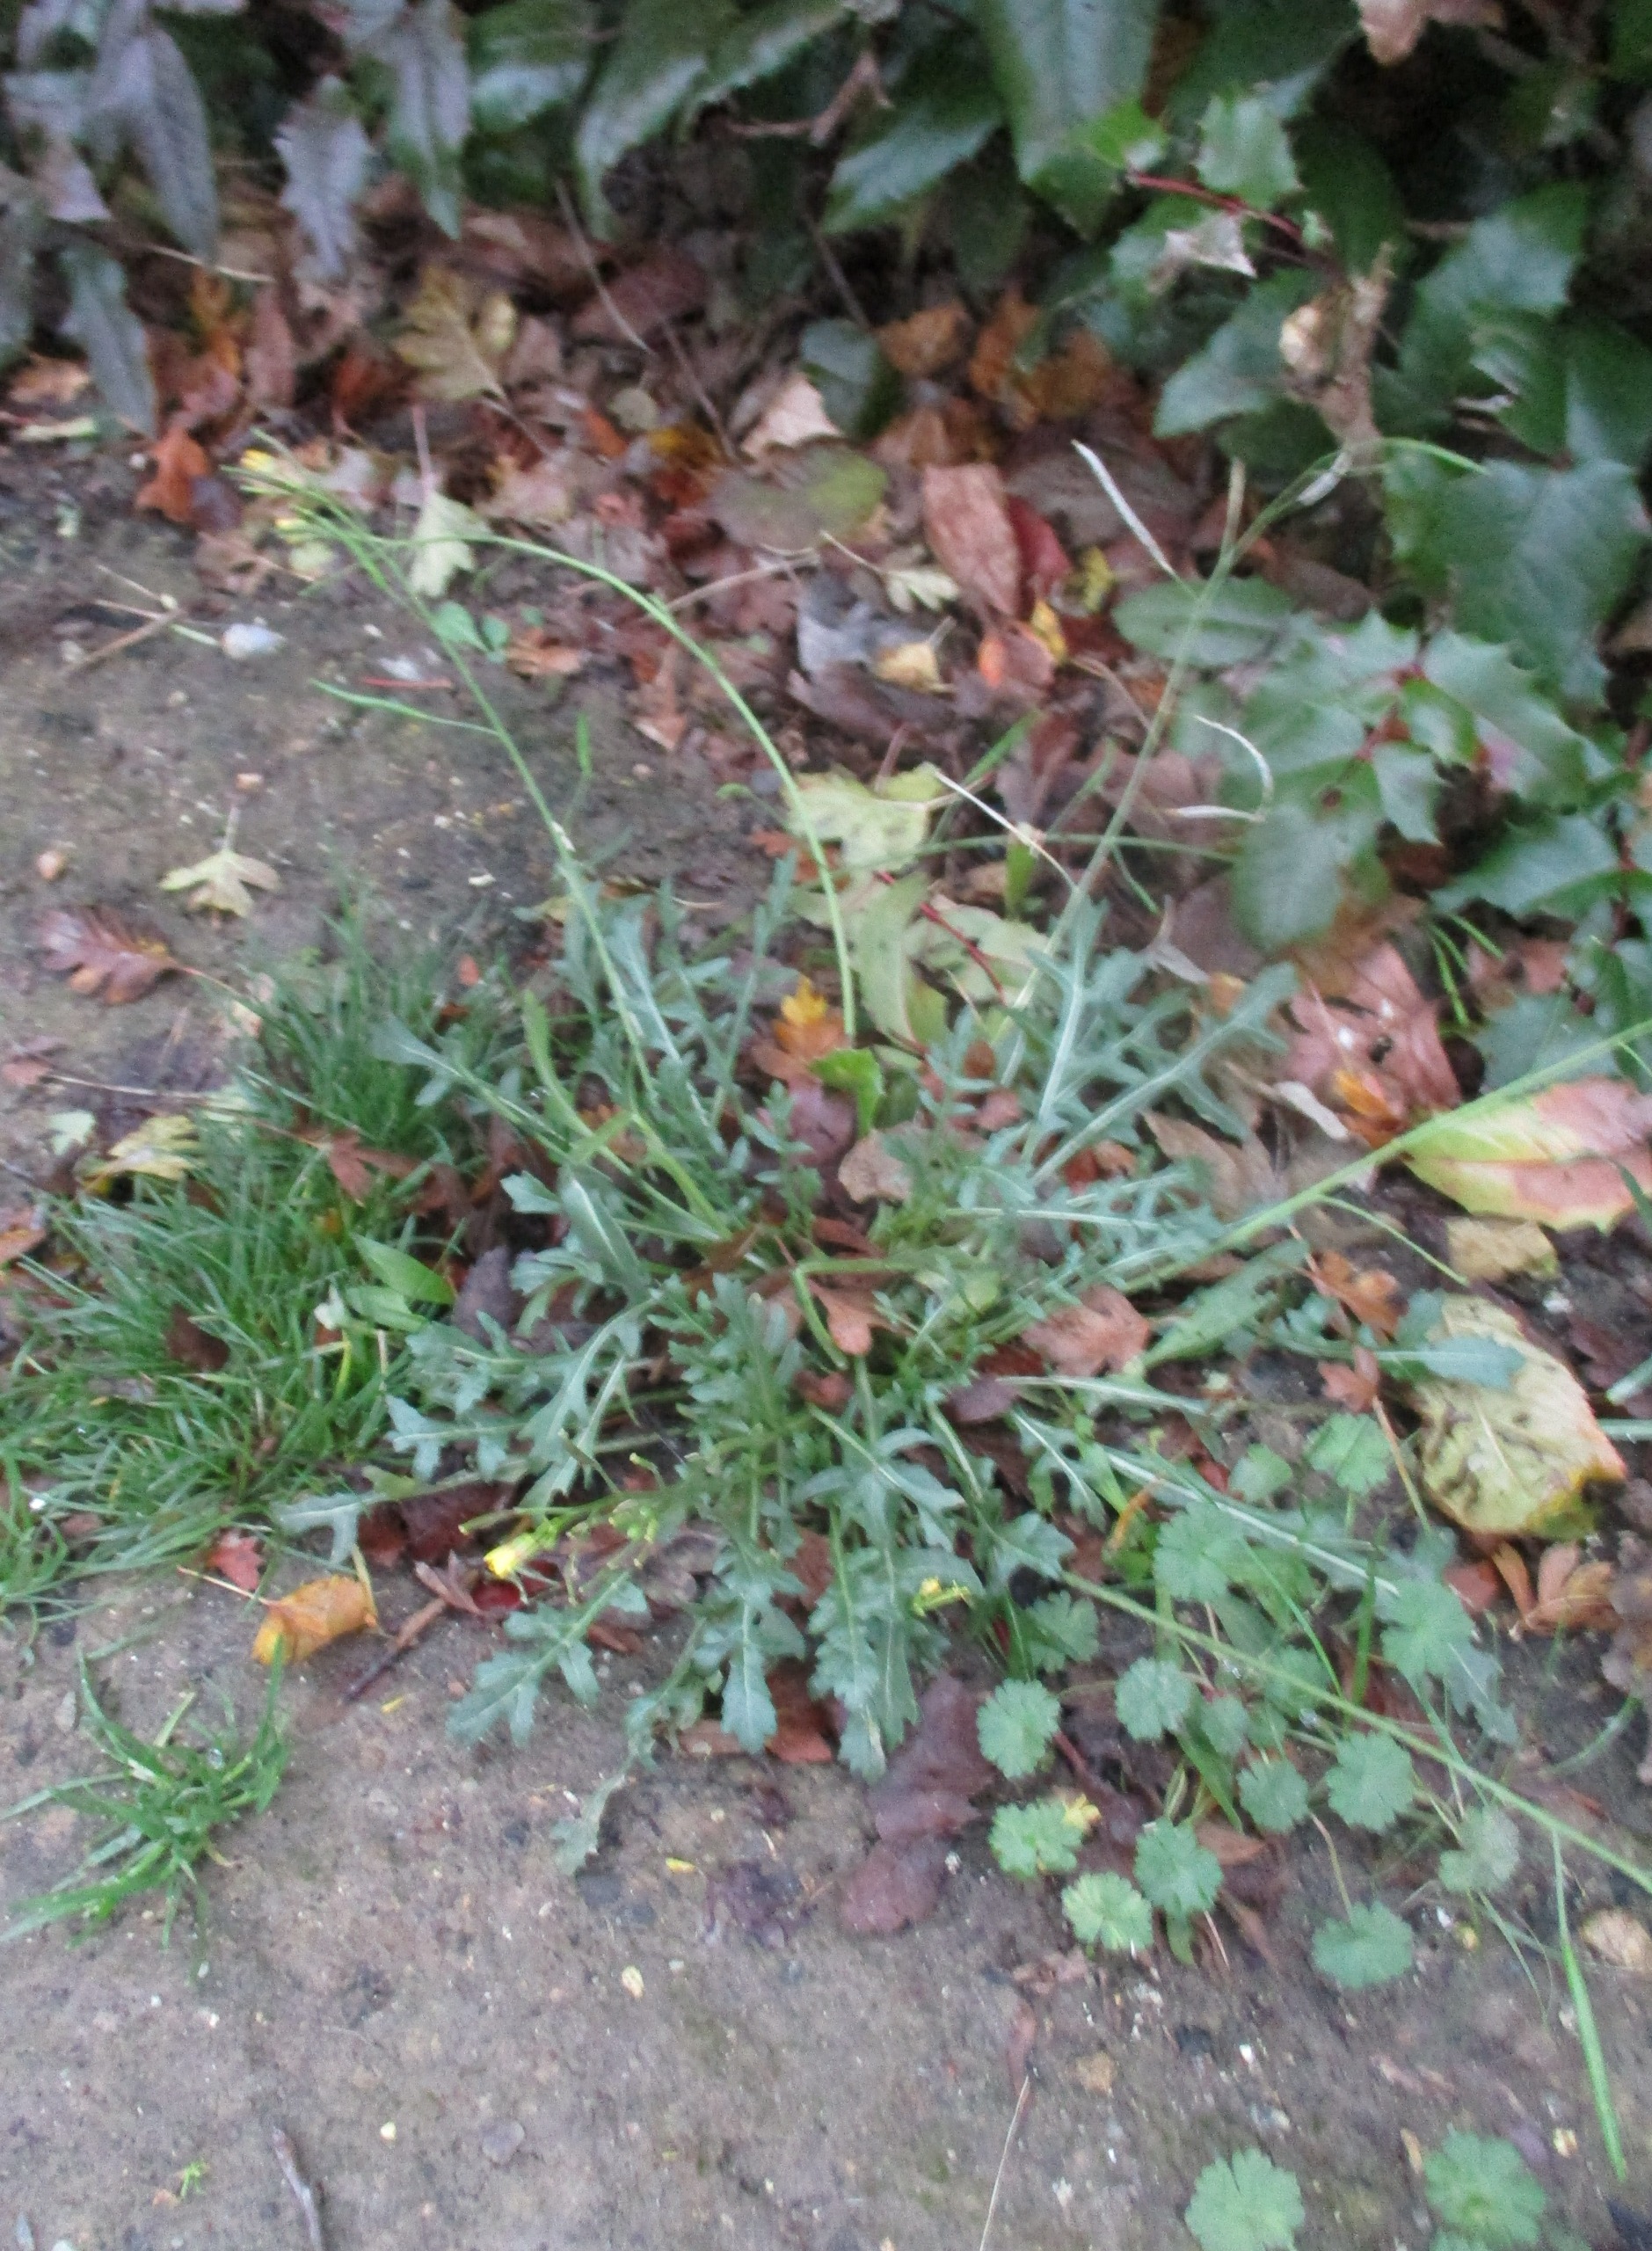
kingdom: Plantae
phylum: Tracheophyta
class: Magnoliopsida
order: Brassicales
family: Brassicaceae
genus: Diplotaxis
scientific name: Diplotaxis
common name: Mursennepslægten
